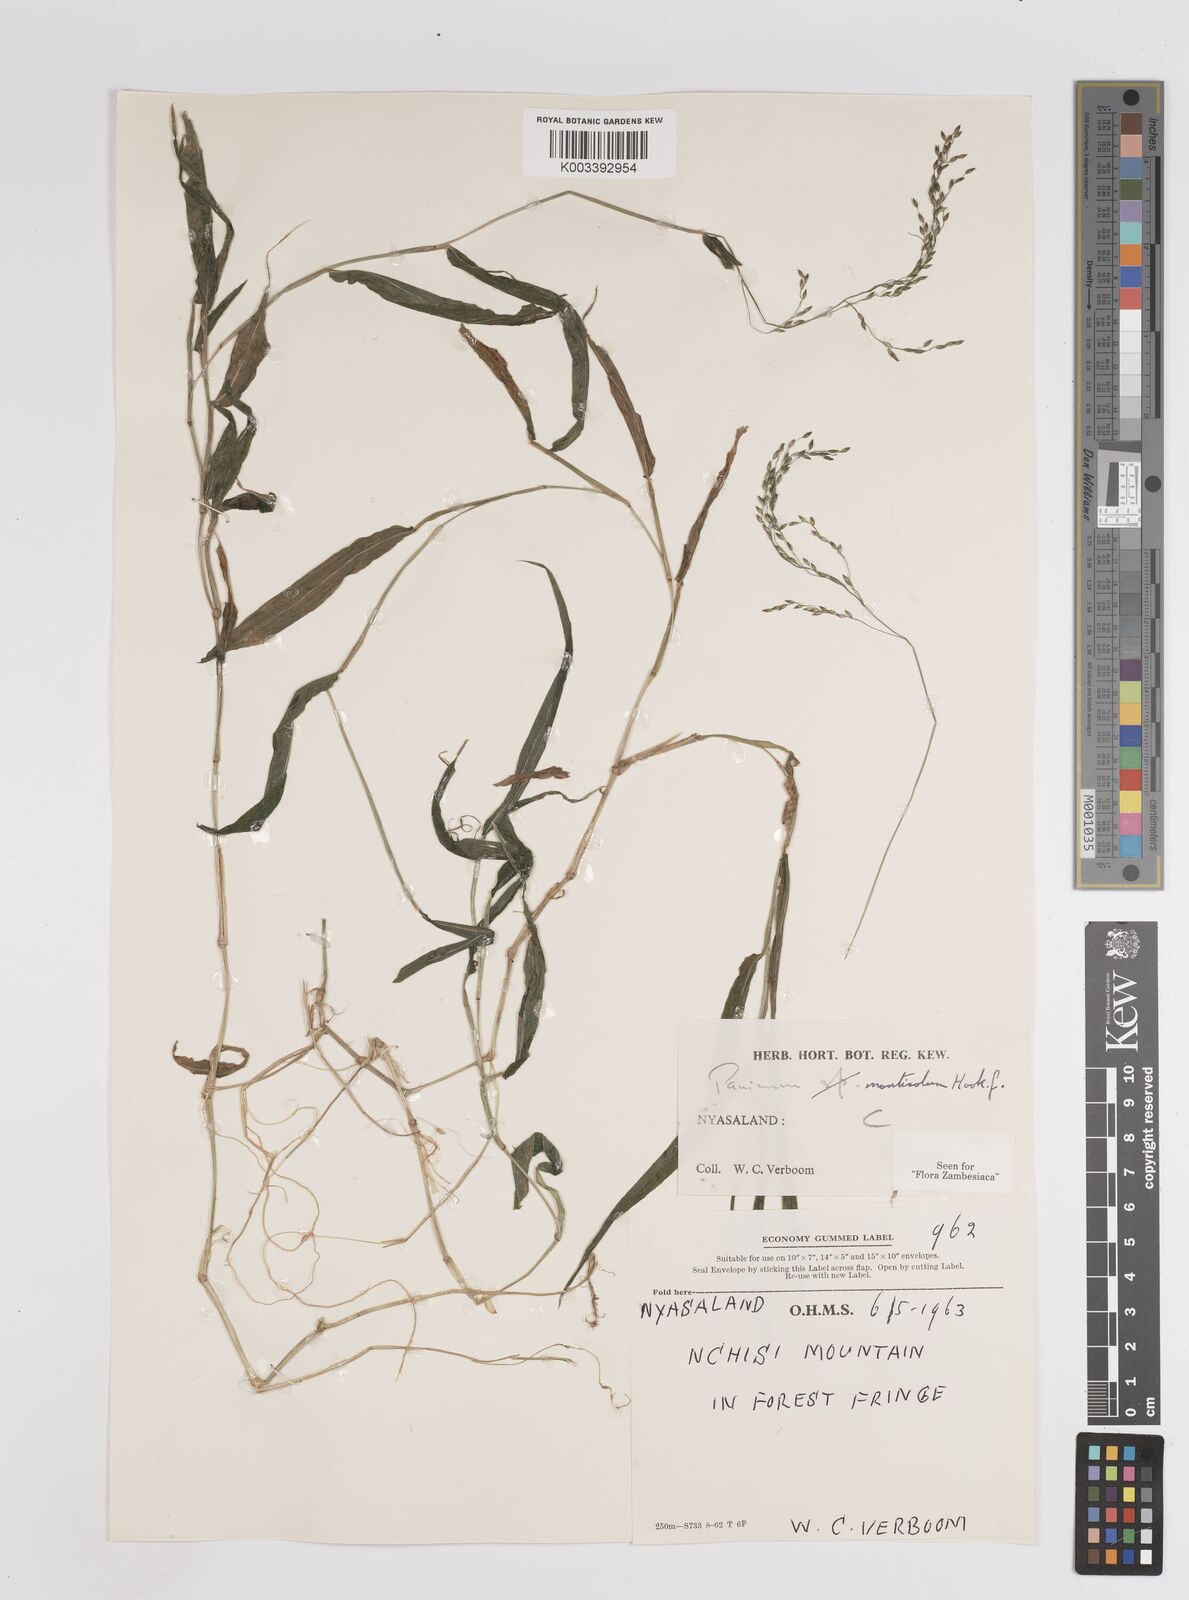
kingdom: Plantae
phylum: Tracheophyta
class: Liliopsida
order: Poales
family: Poaceae
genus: Panicum
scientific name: Panicum monticola
